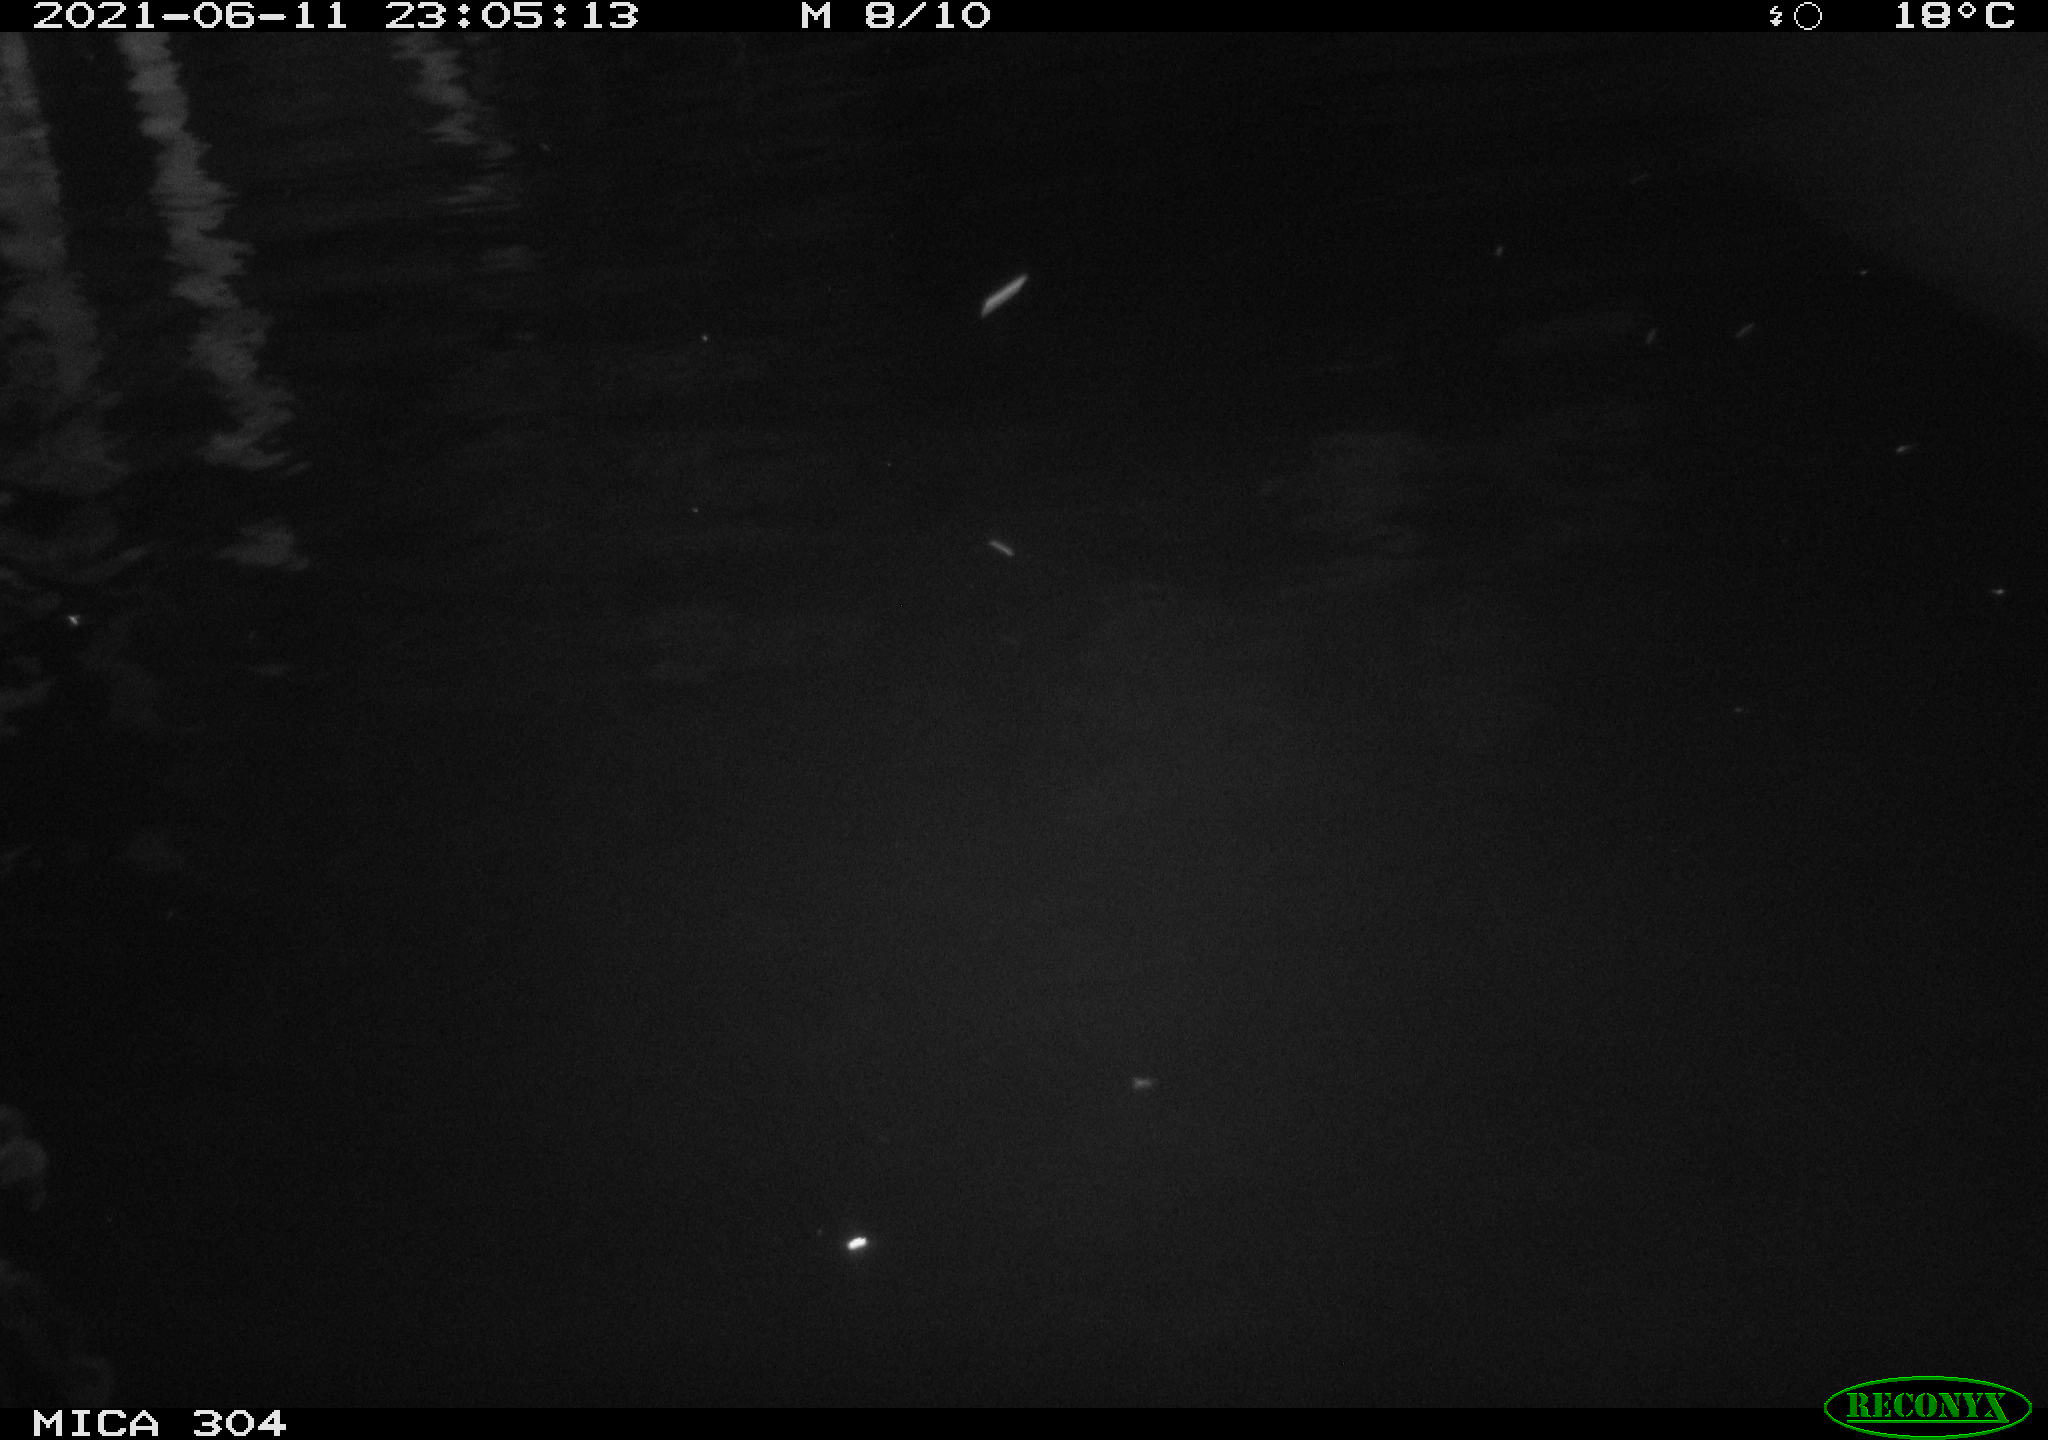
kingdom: Animalia
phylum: Chordata
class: Aves
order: Anseriformes
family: Anatidae
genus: Anas
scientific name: Anas platyrhynchos
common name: Mallard
